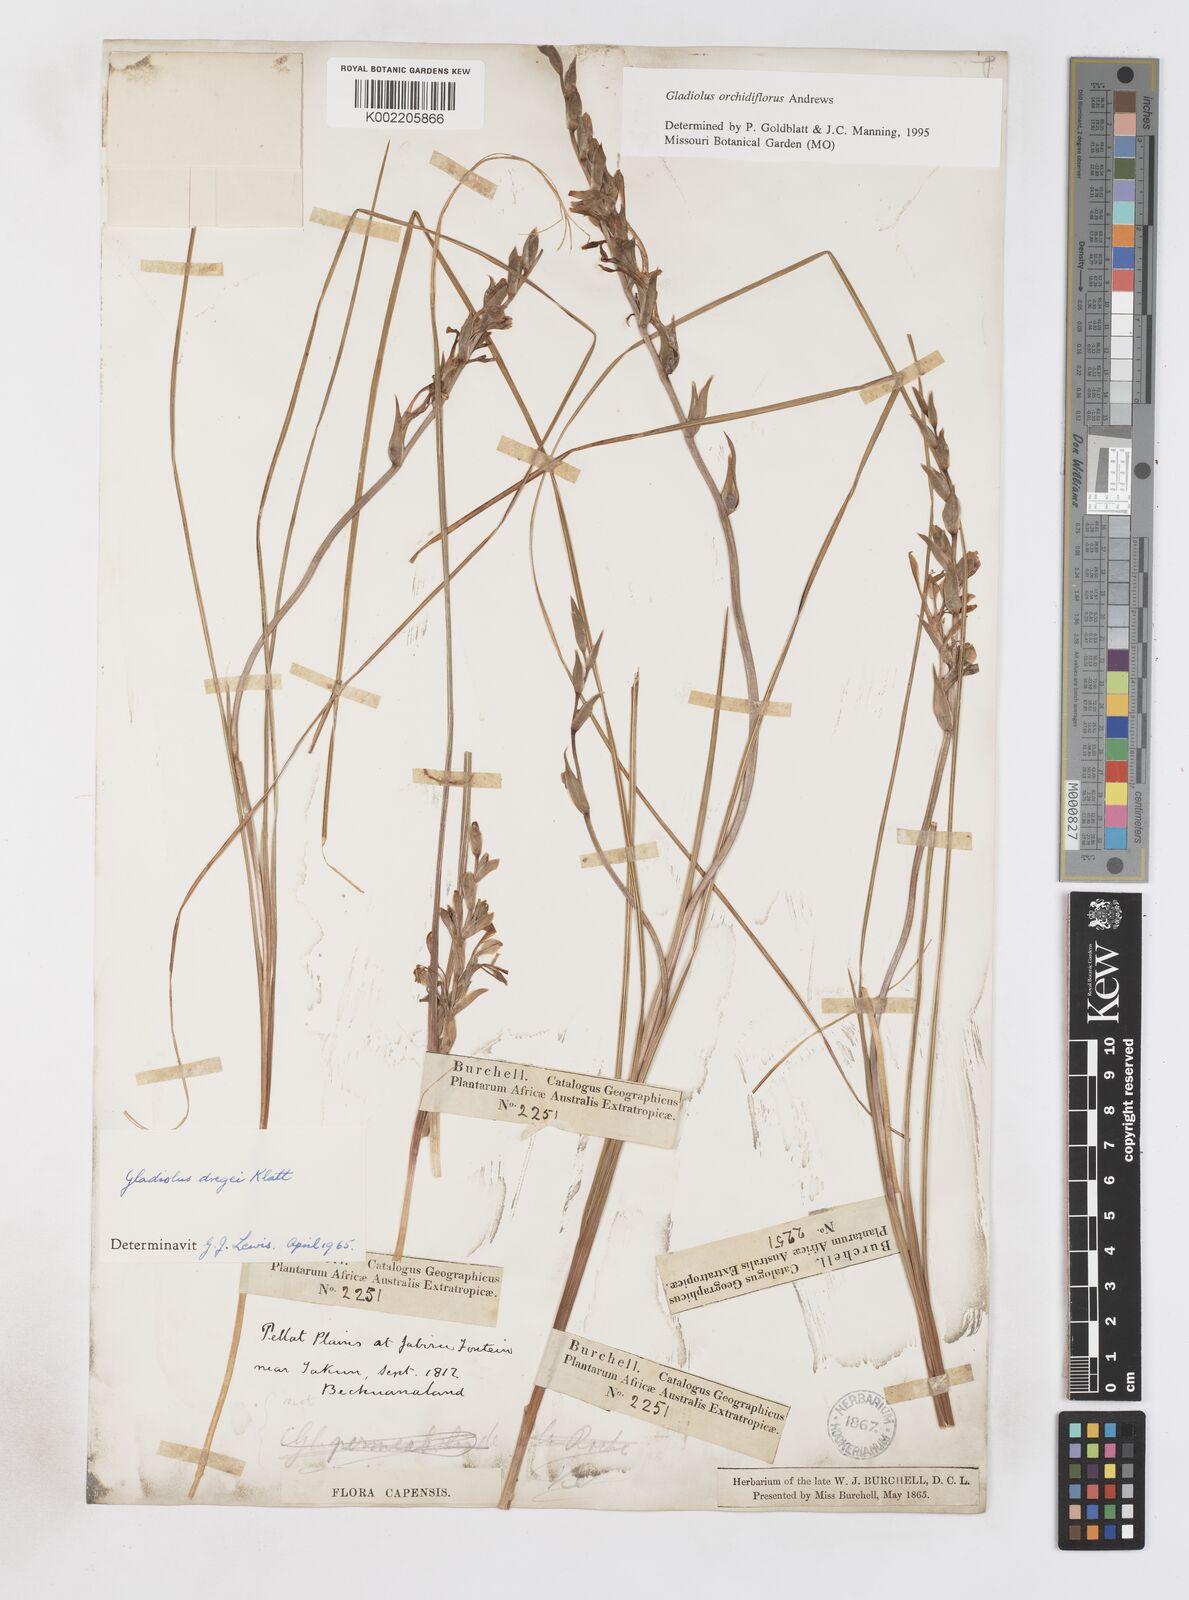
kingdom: Plantae
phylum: Tracheophyta
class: Liliopsida
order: Asparagales
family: Iridaceae
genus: Gladiolus
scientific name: Gladiolus orchidiflorus
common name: Gray kalkoentjie
